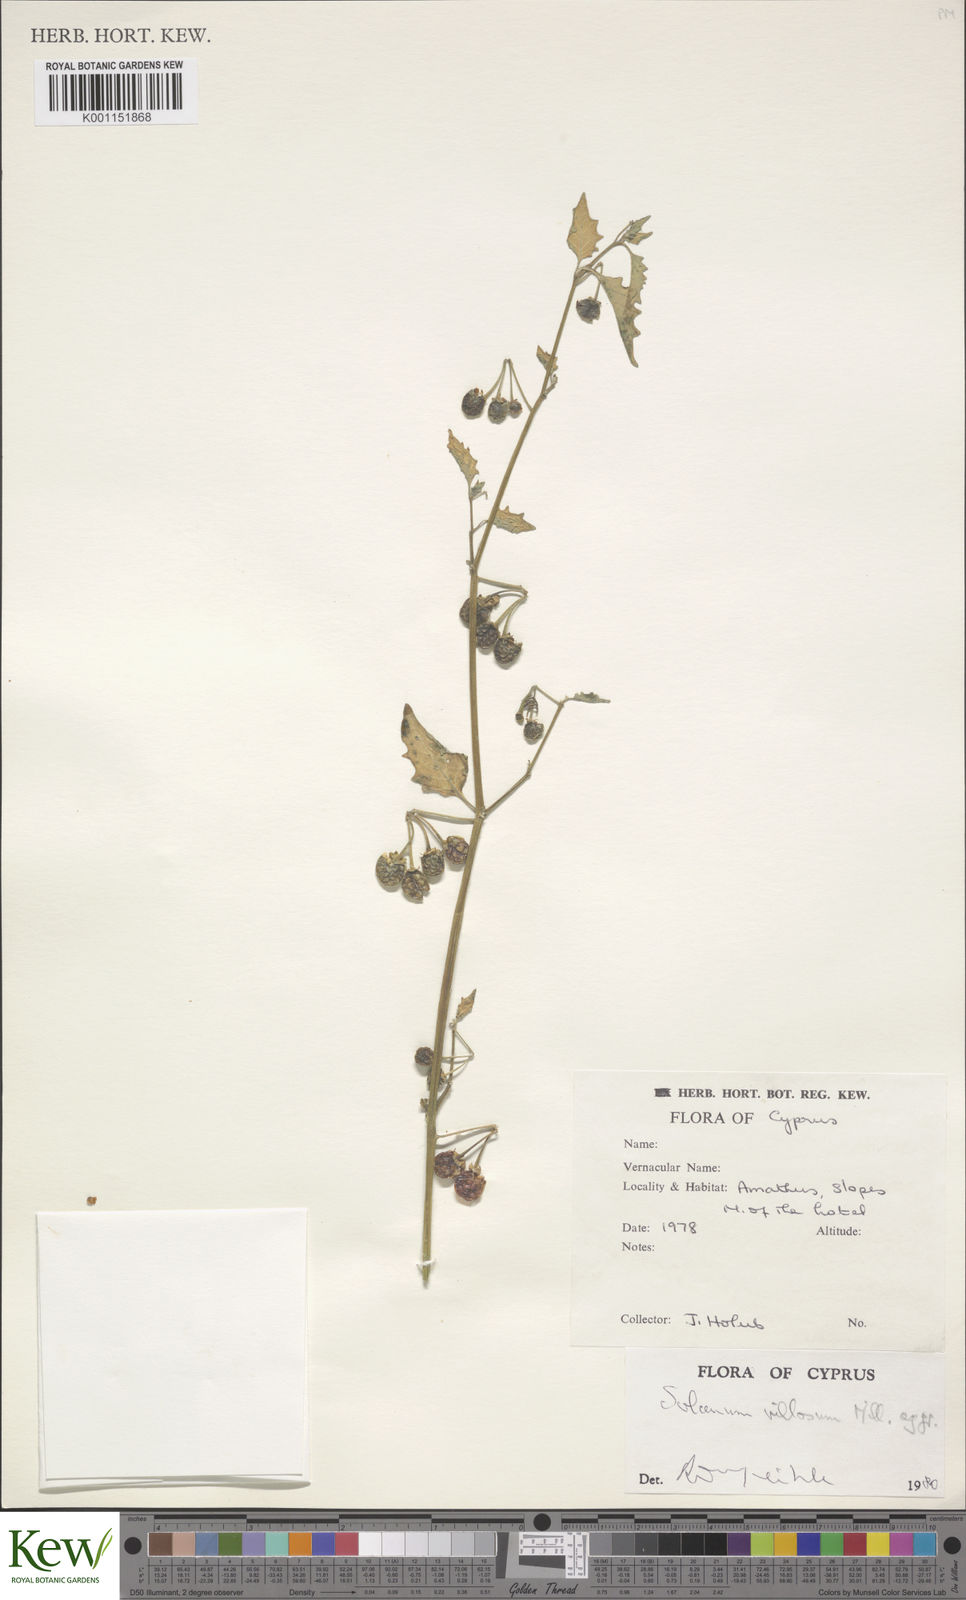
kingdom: Plantae
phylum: Tracheophyta
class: Magnoliopsida
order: Solanales
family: Solanaceae
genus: Solanum
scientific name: Solanum villosum
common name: Red nightshade
